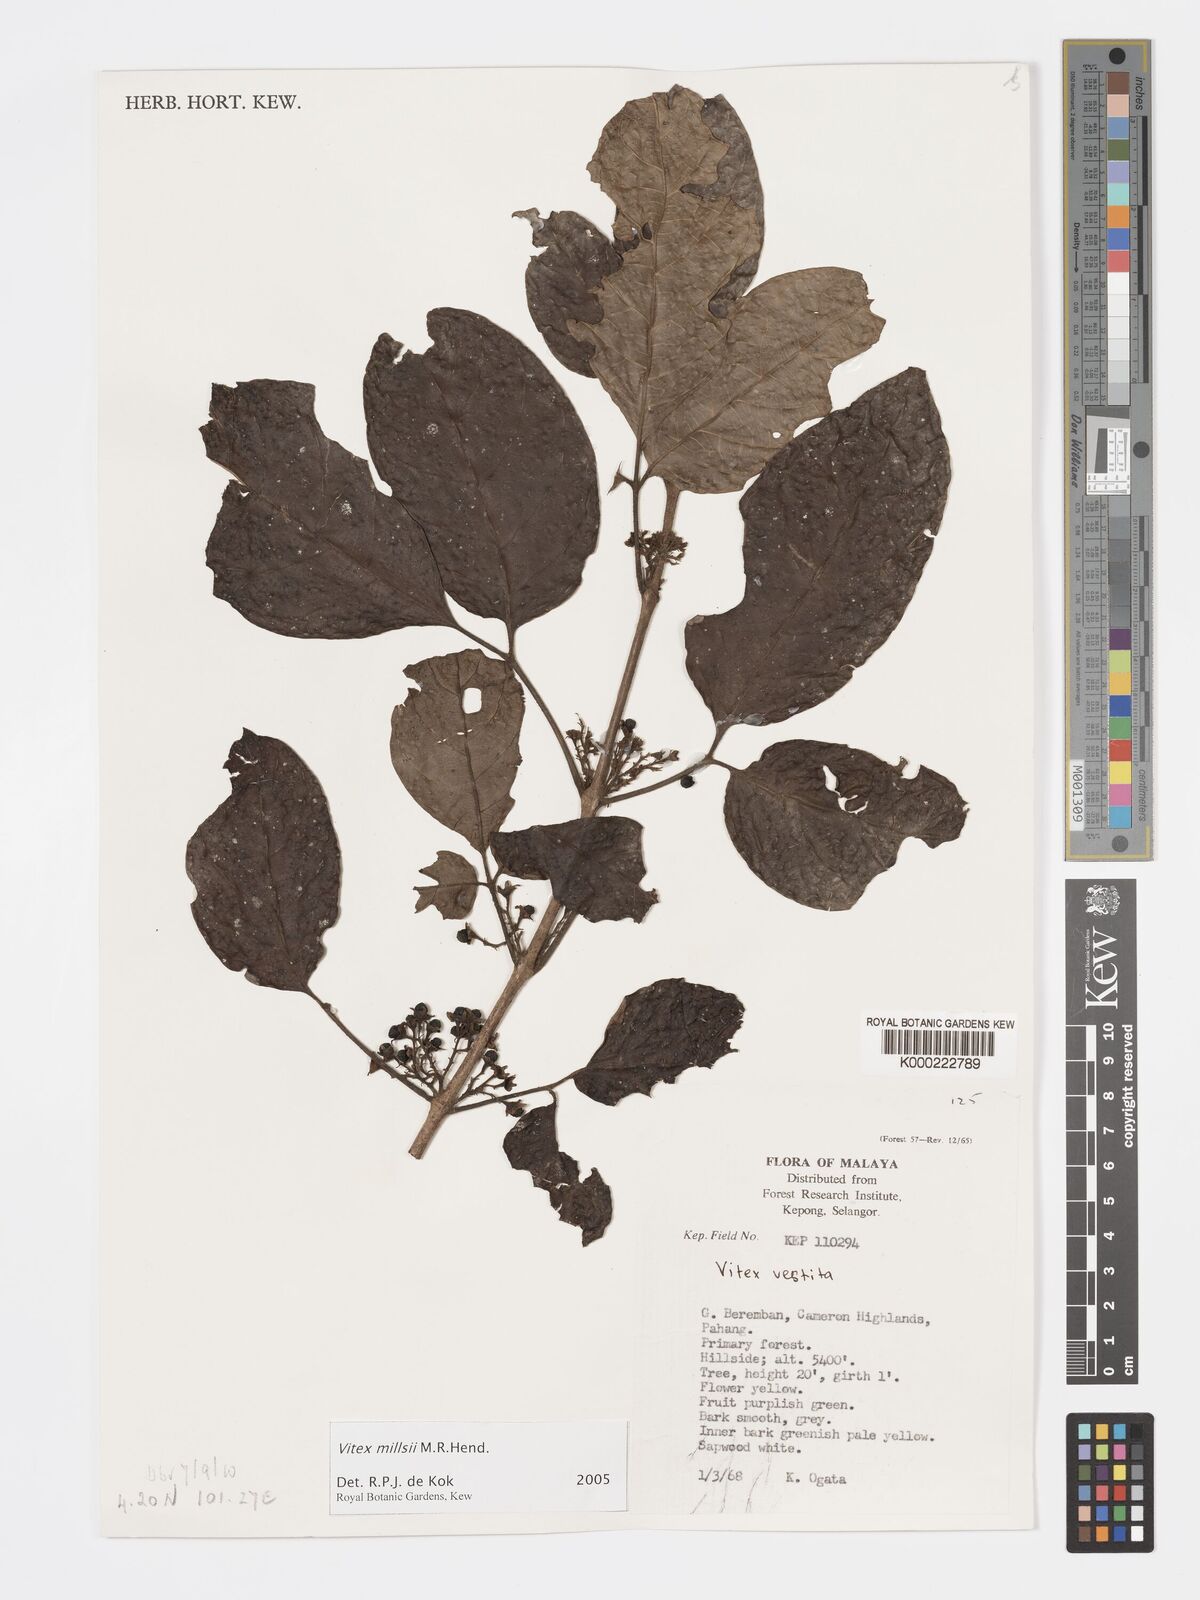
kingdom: Plantae
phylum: Tracheophyta
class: Magnoliopsida
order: Lamiales
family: Lamiaceae
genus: Vitex
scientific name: Vitex millsii
